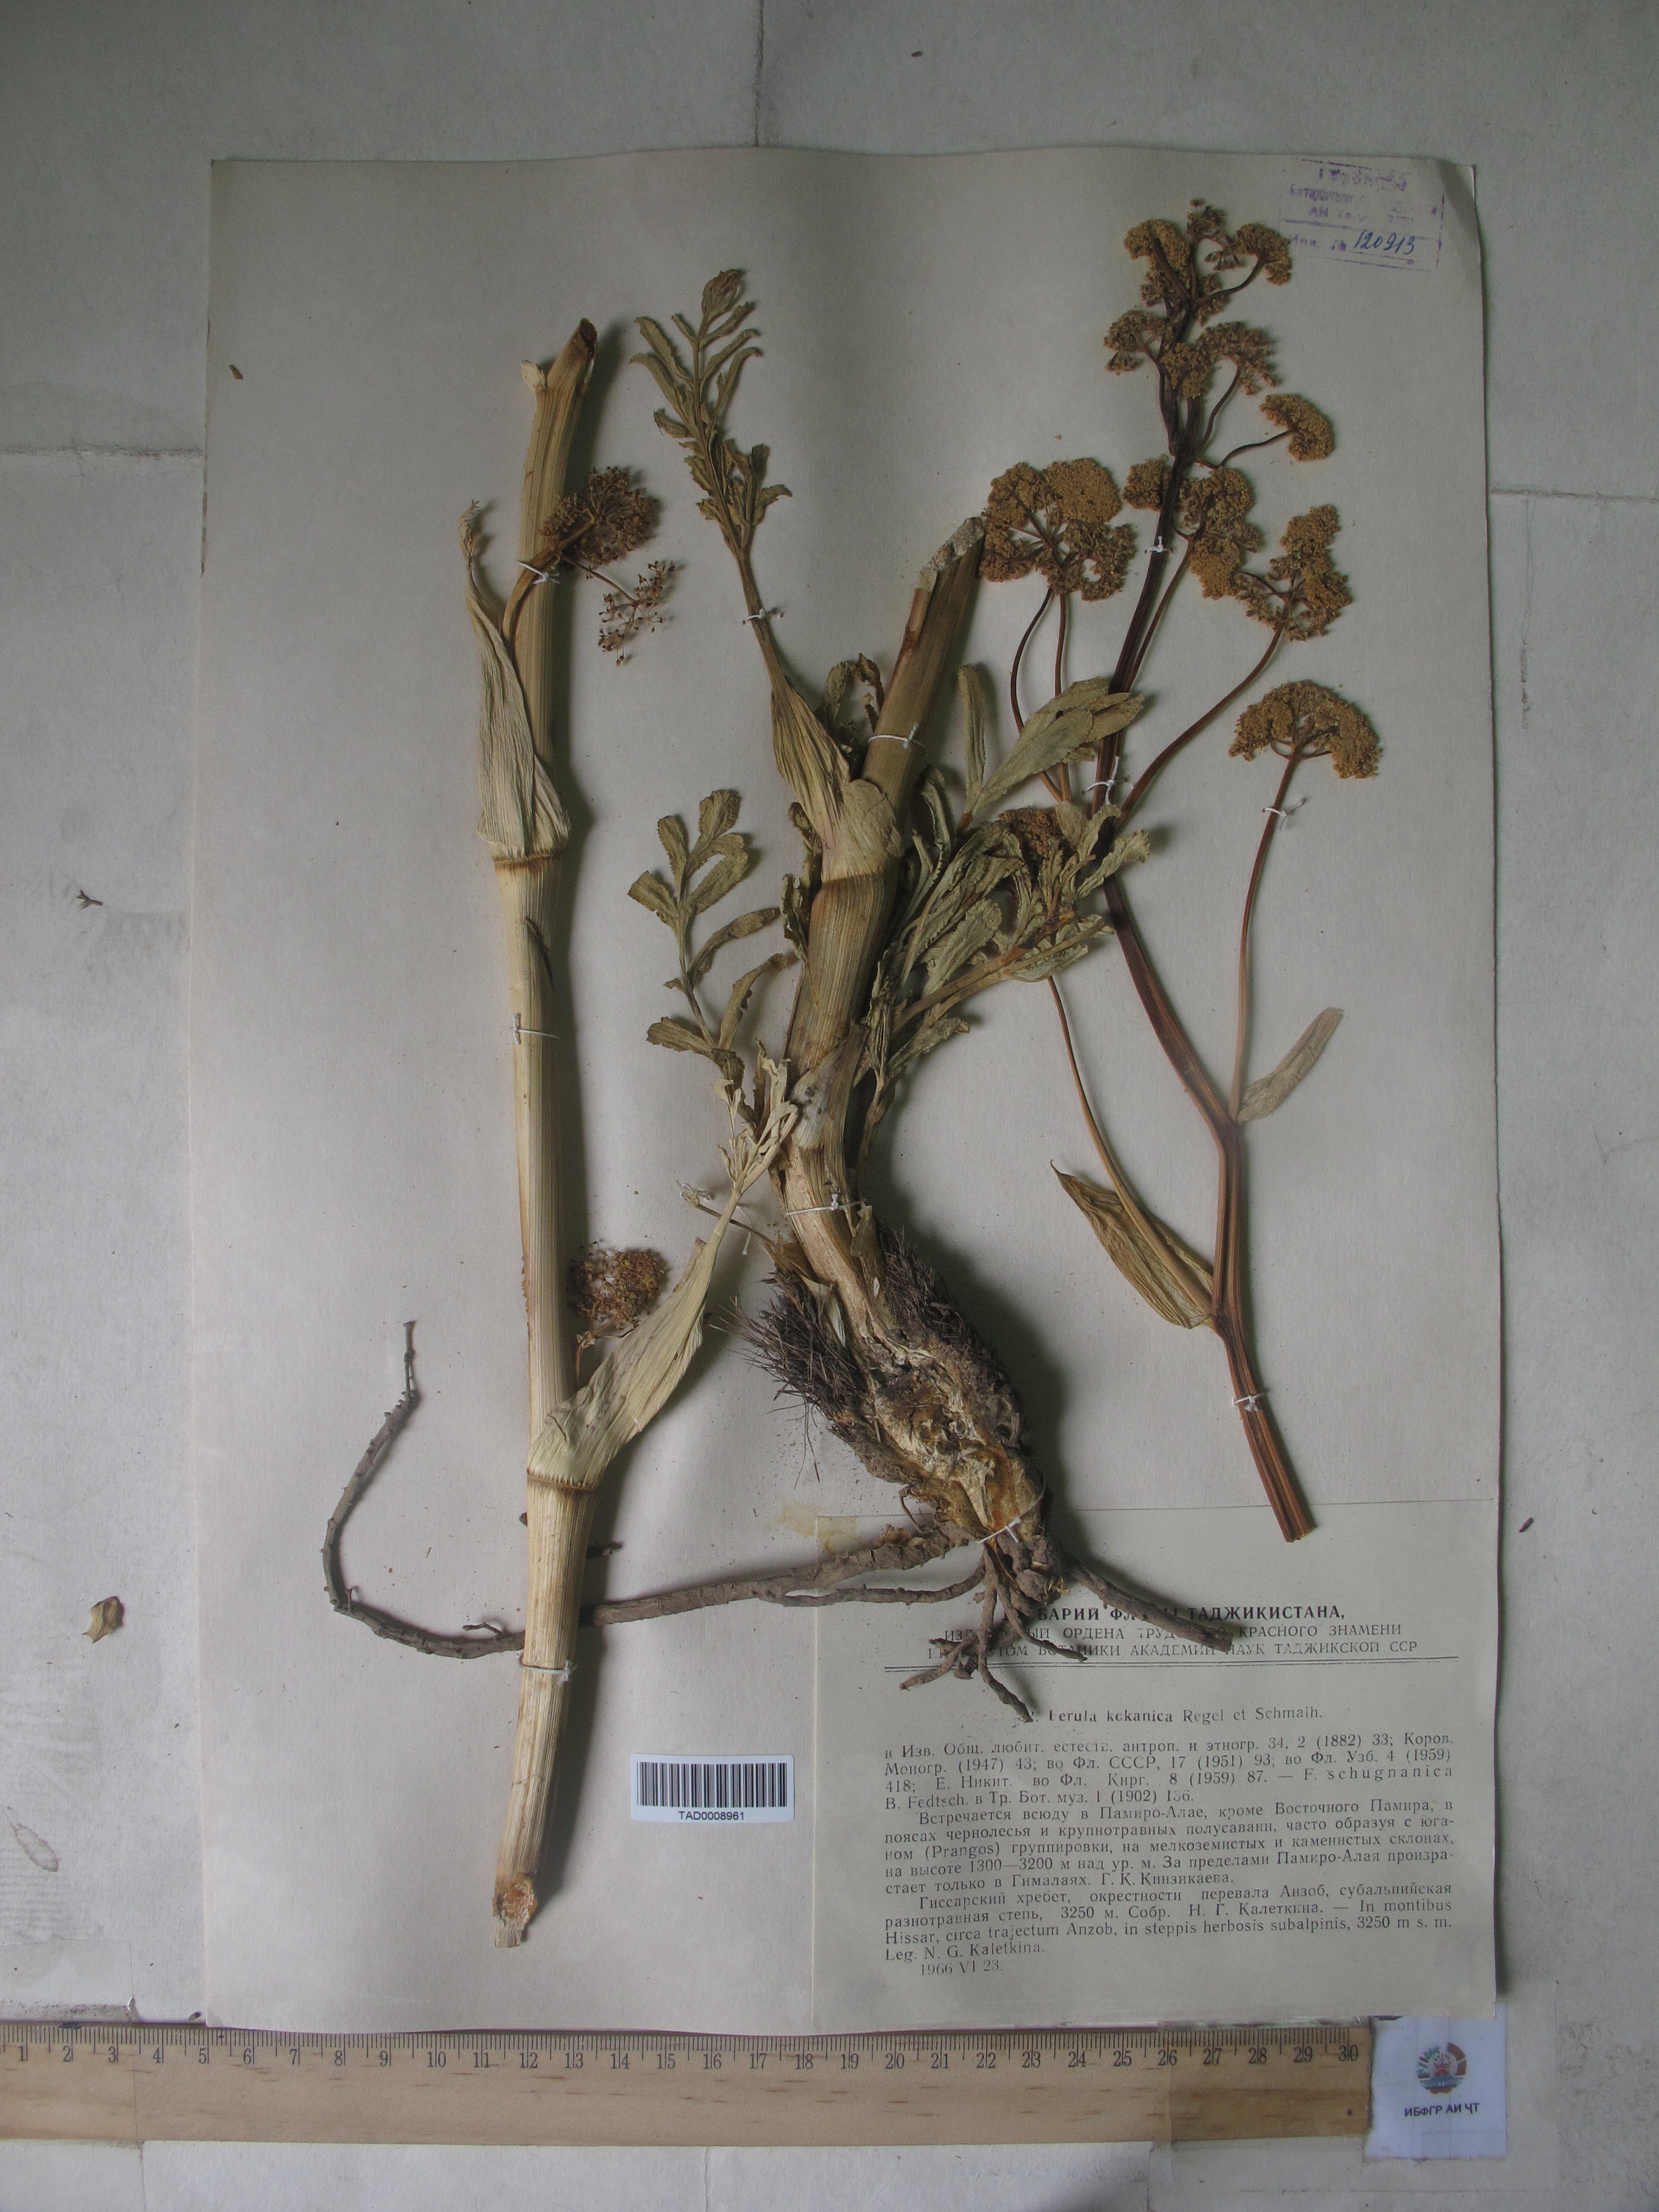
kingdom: Plantae
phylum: Tracheophyta
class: Magnoliopsida
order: Apiales
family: Apiaceae
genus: Ferula
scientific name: Ferula kokanica
